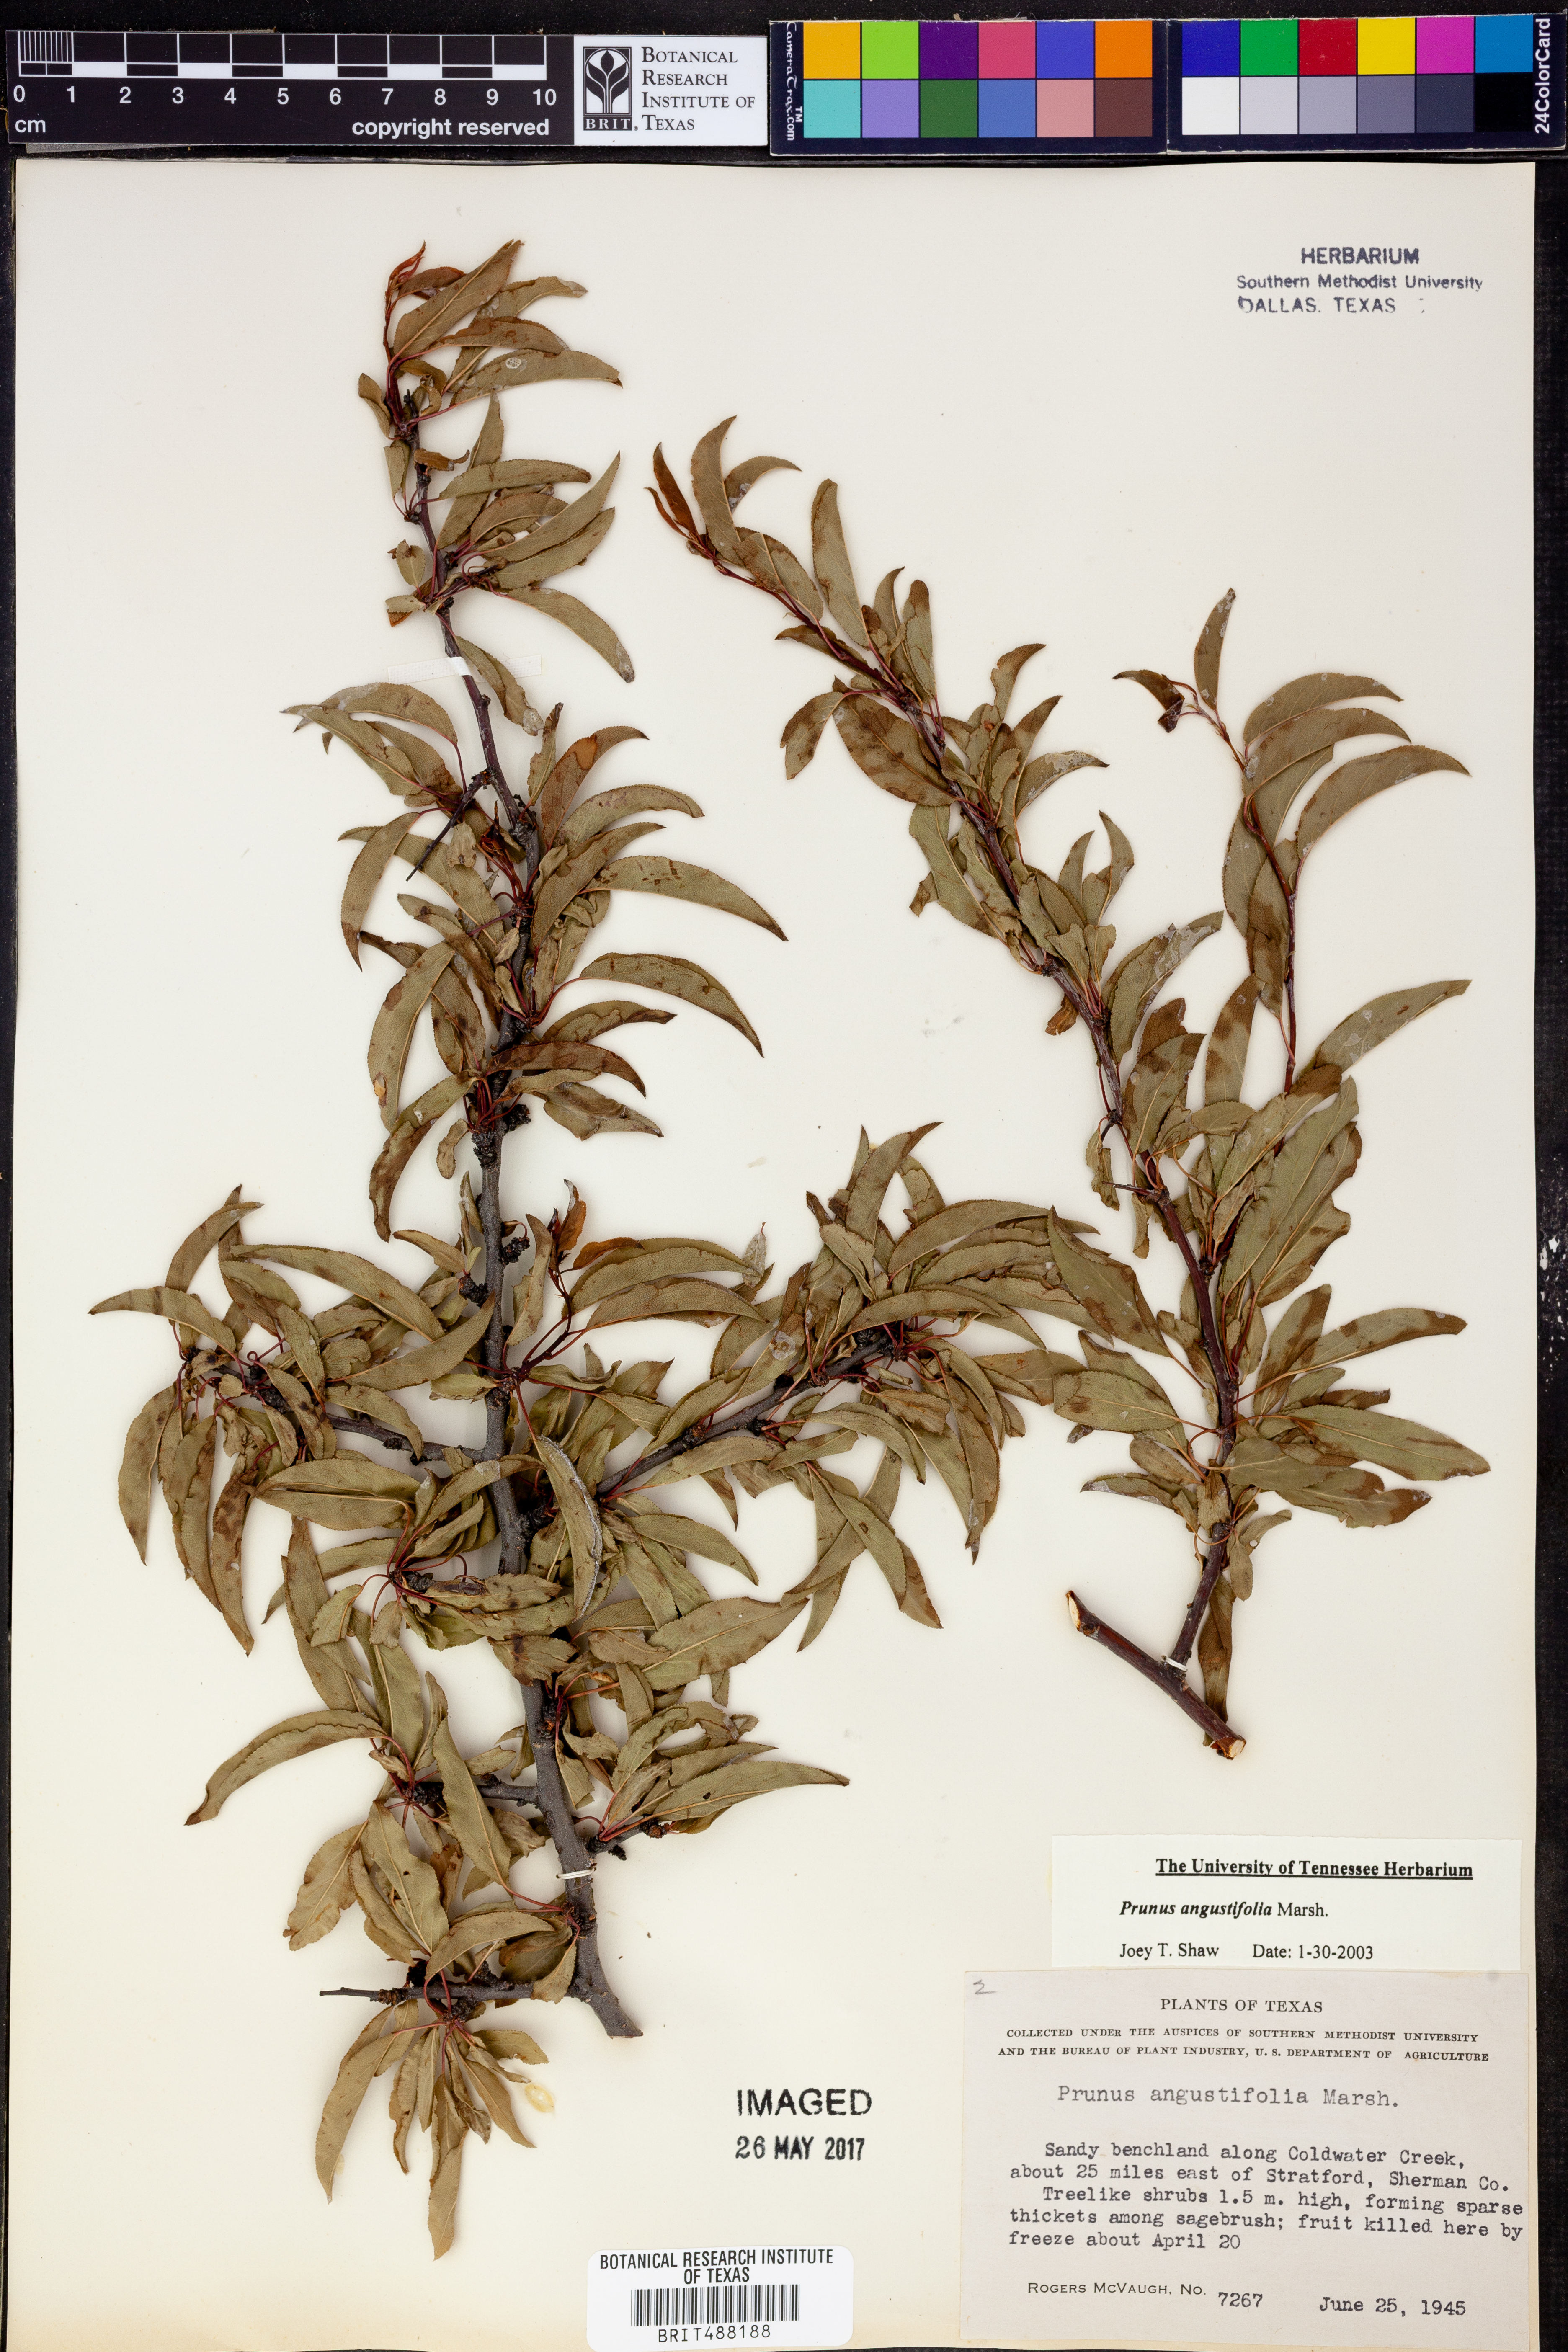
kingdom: Plantae
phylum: Tracheophyta
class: Magnoliopsida
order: Rosales
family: Rosaceae
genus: Prunus
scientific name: Prunus angustifolia
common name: Cherokee plum
